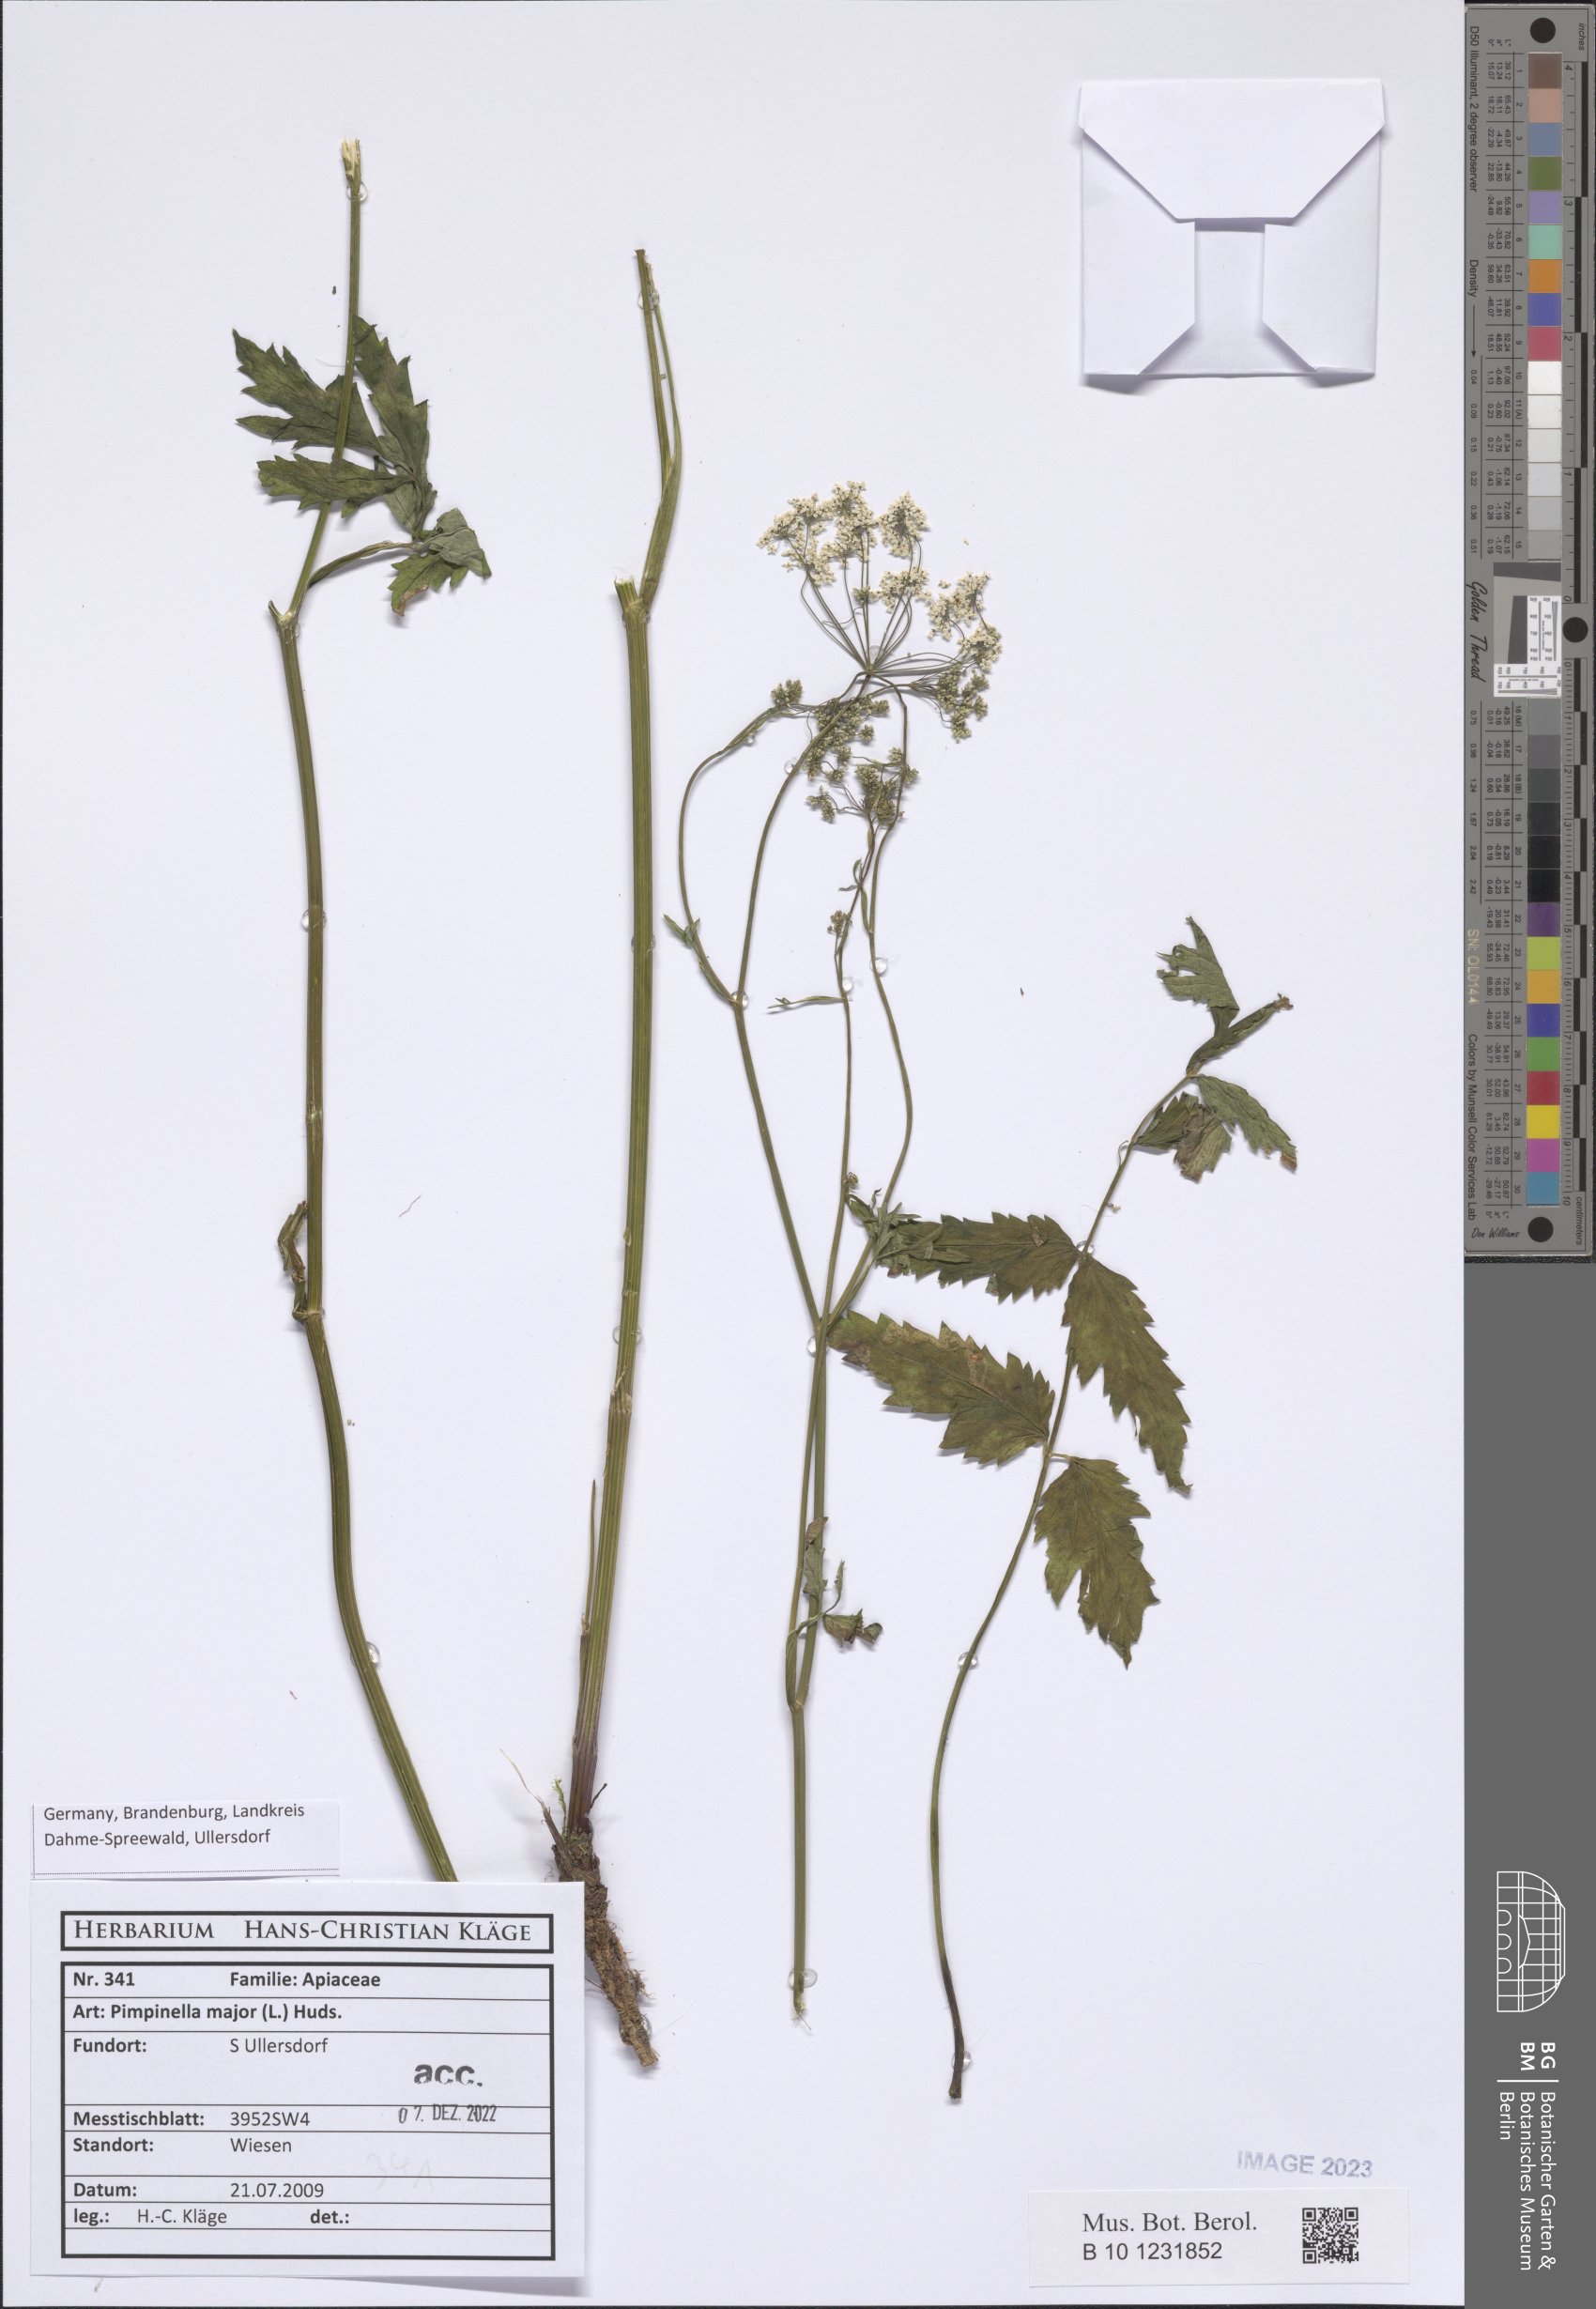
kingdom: Plantae
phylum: Tracheophyta
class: Magnoliopsida
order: Apiales
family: Apiaceae
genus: Pimpinella
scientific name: Pimpinella major
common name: Greater burnet-saxifrage
